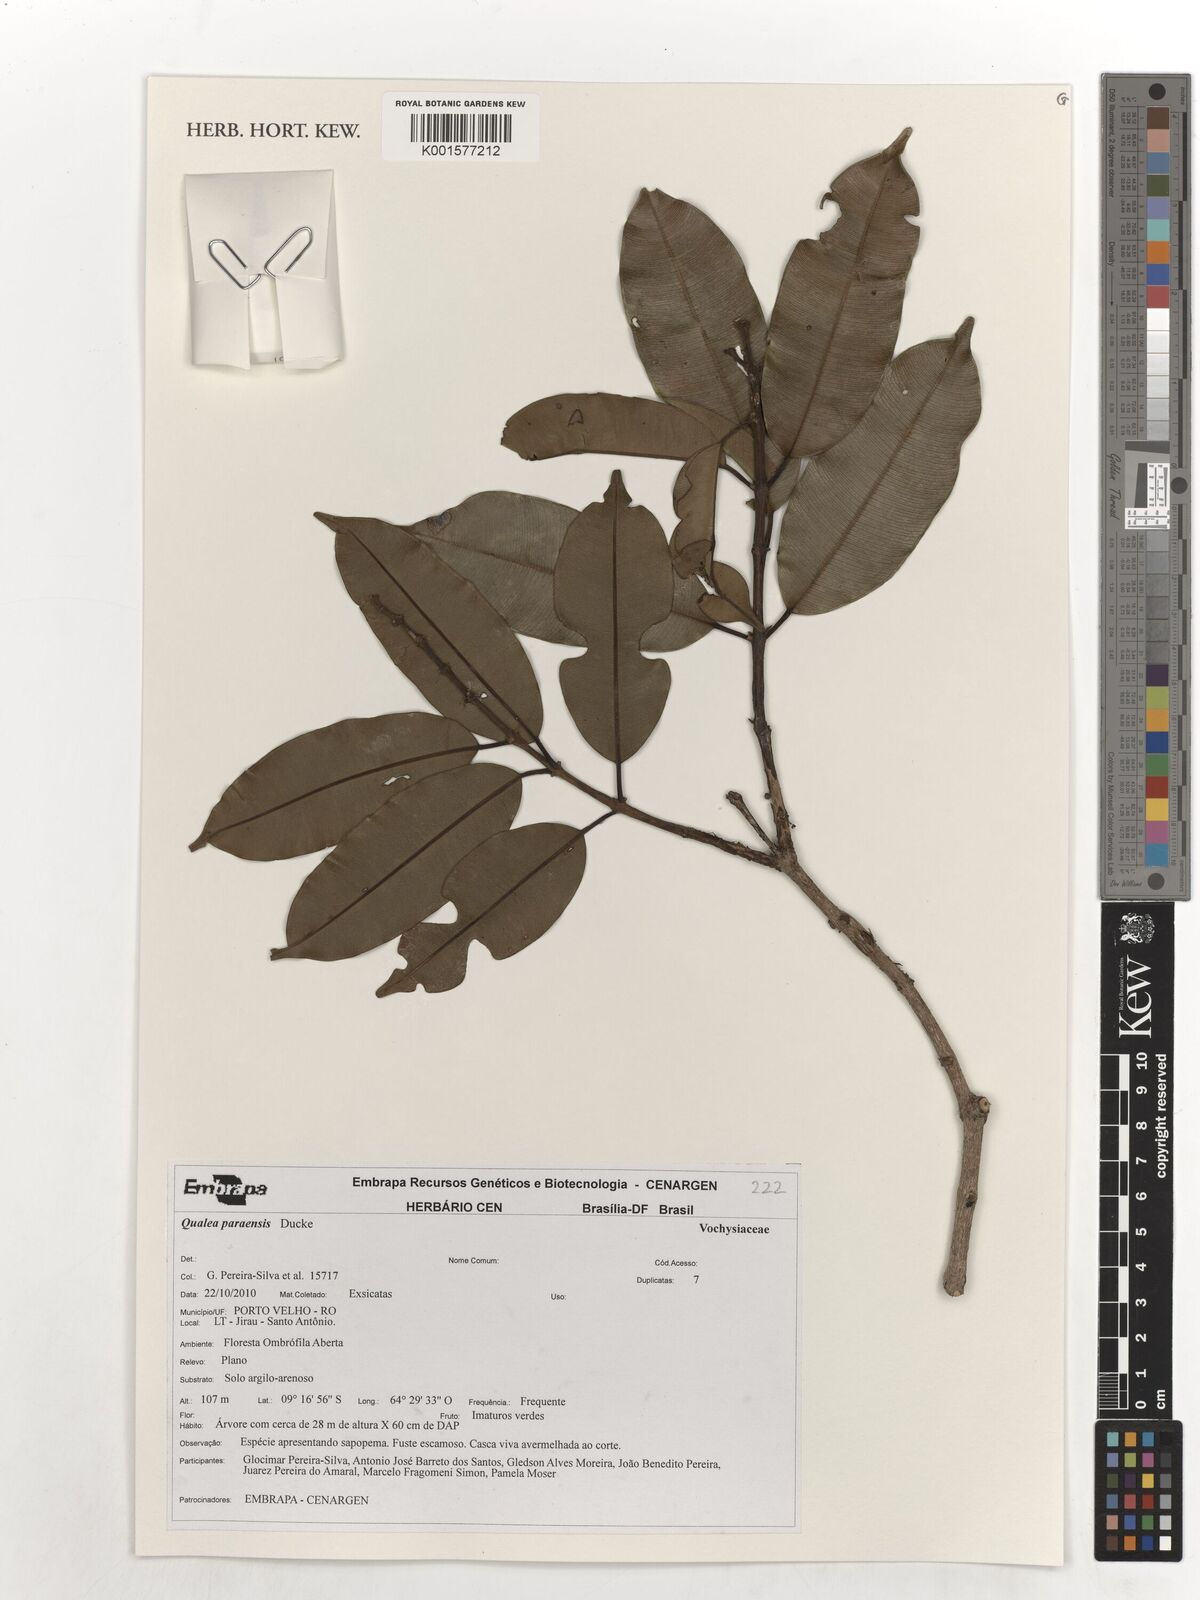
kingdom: Plantae
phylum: Tracheophyta
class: Magnoliopsida
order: Myrtales
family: Vochysiaceae
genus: Qualea
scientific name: Qualea paraensis
